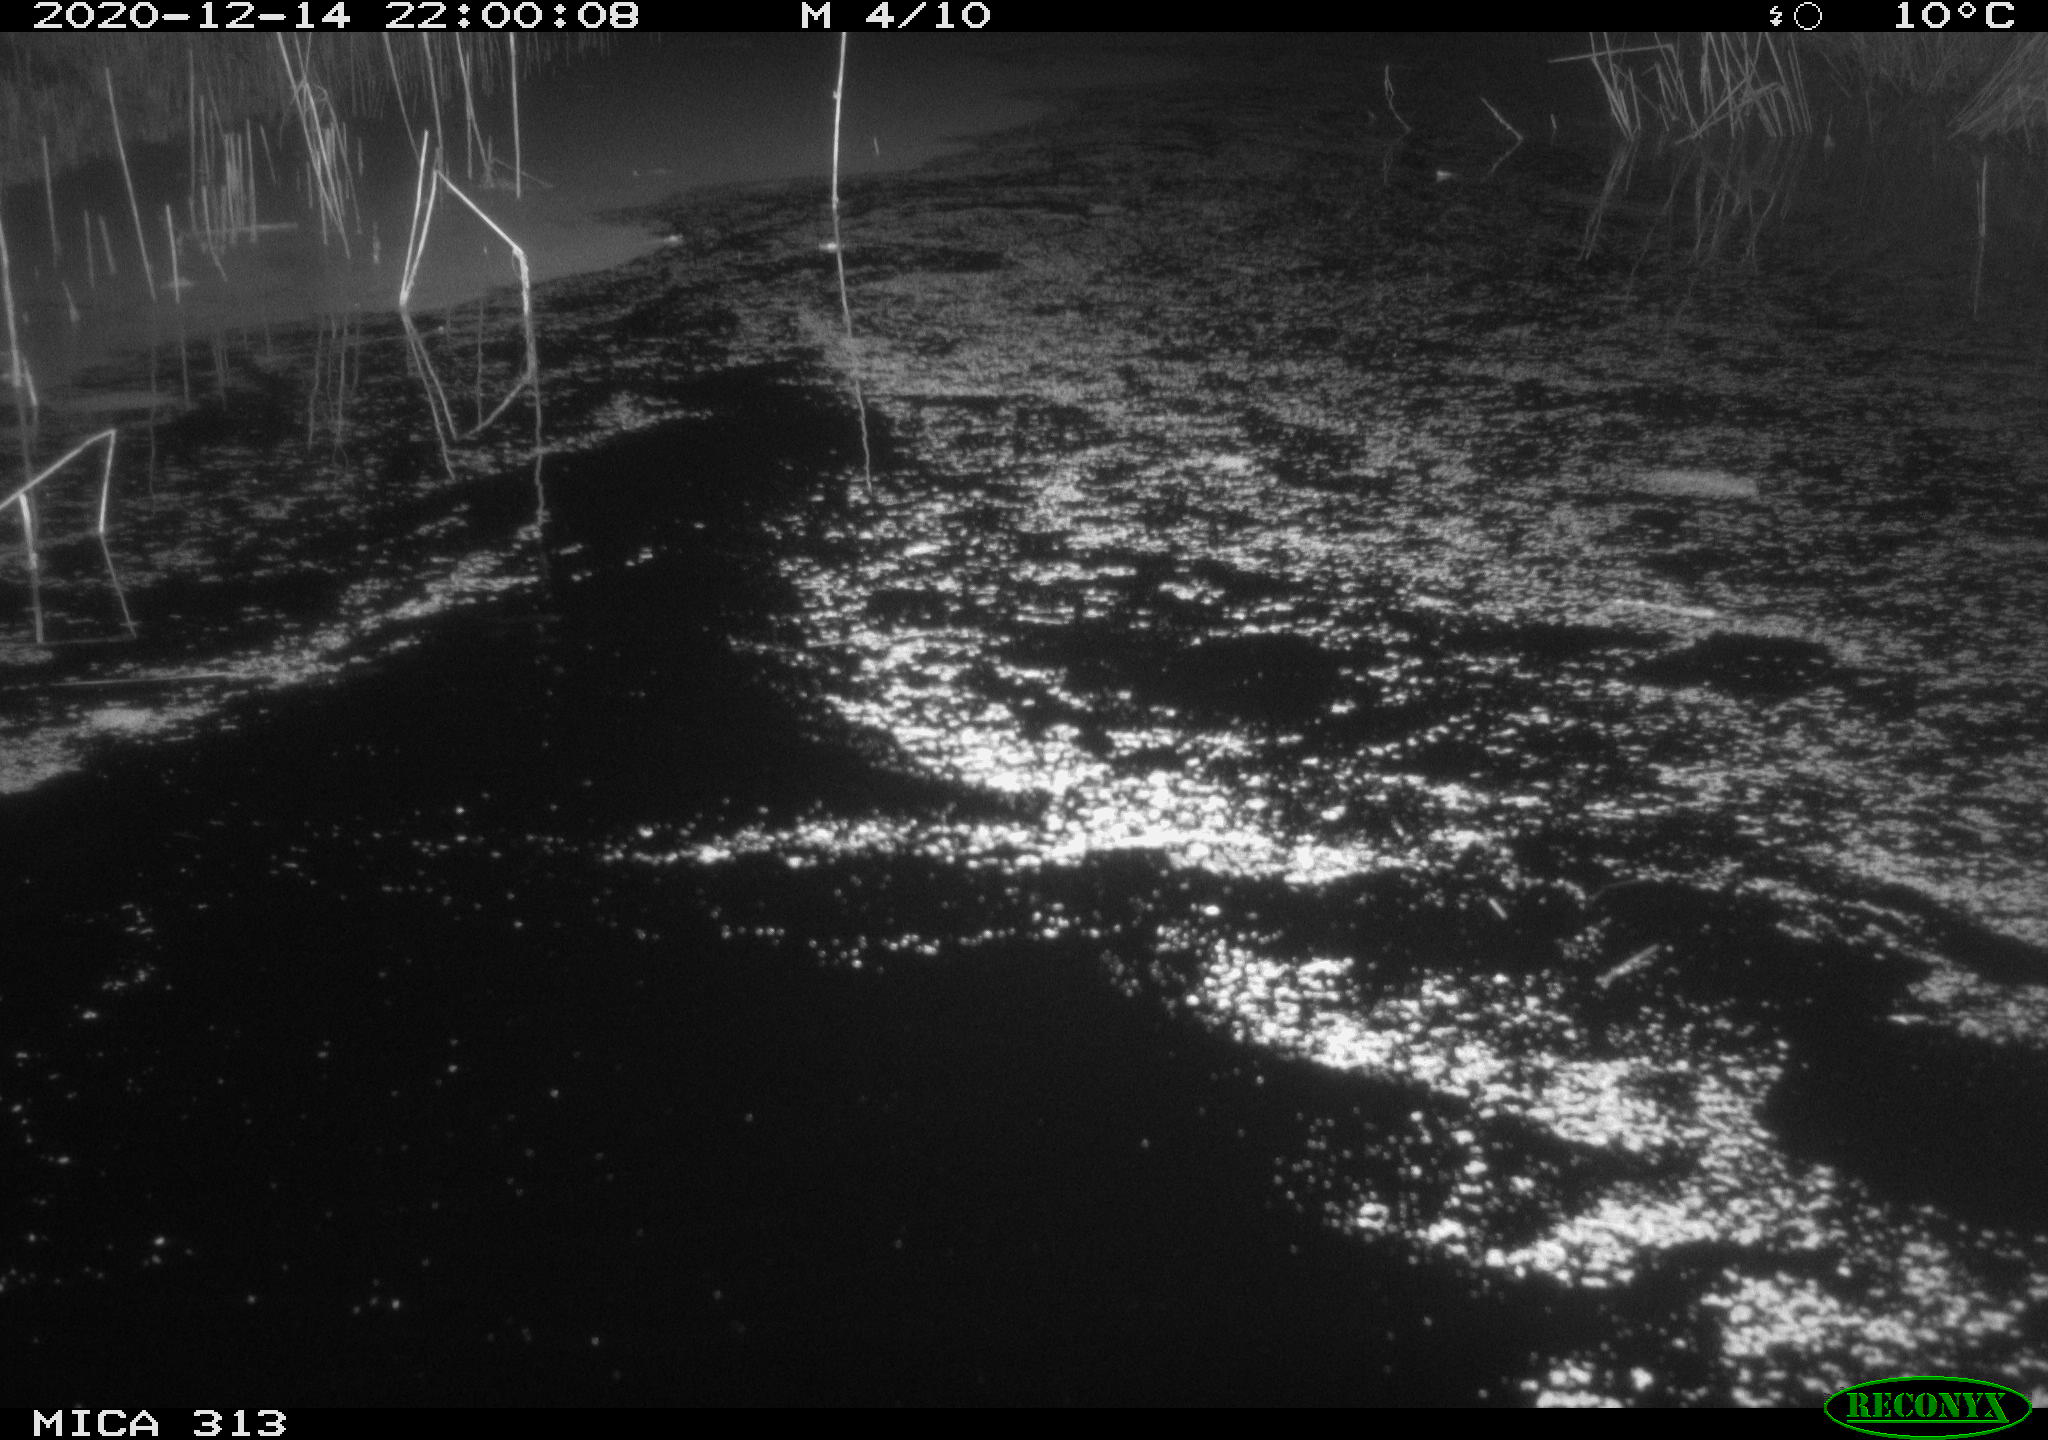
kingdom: Animalia
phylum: Chordata
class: Mammalia
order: Rodentia
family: Muridae
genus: Rattus
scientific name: Rattus norvegicus
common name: Brown rat
